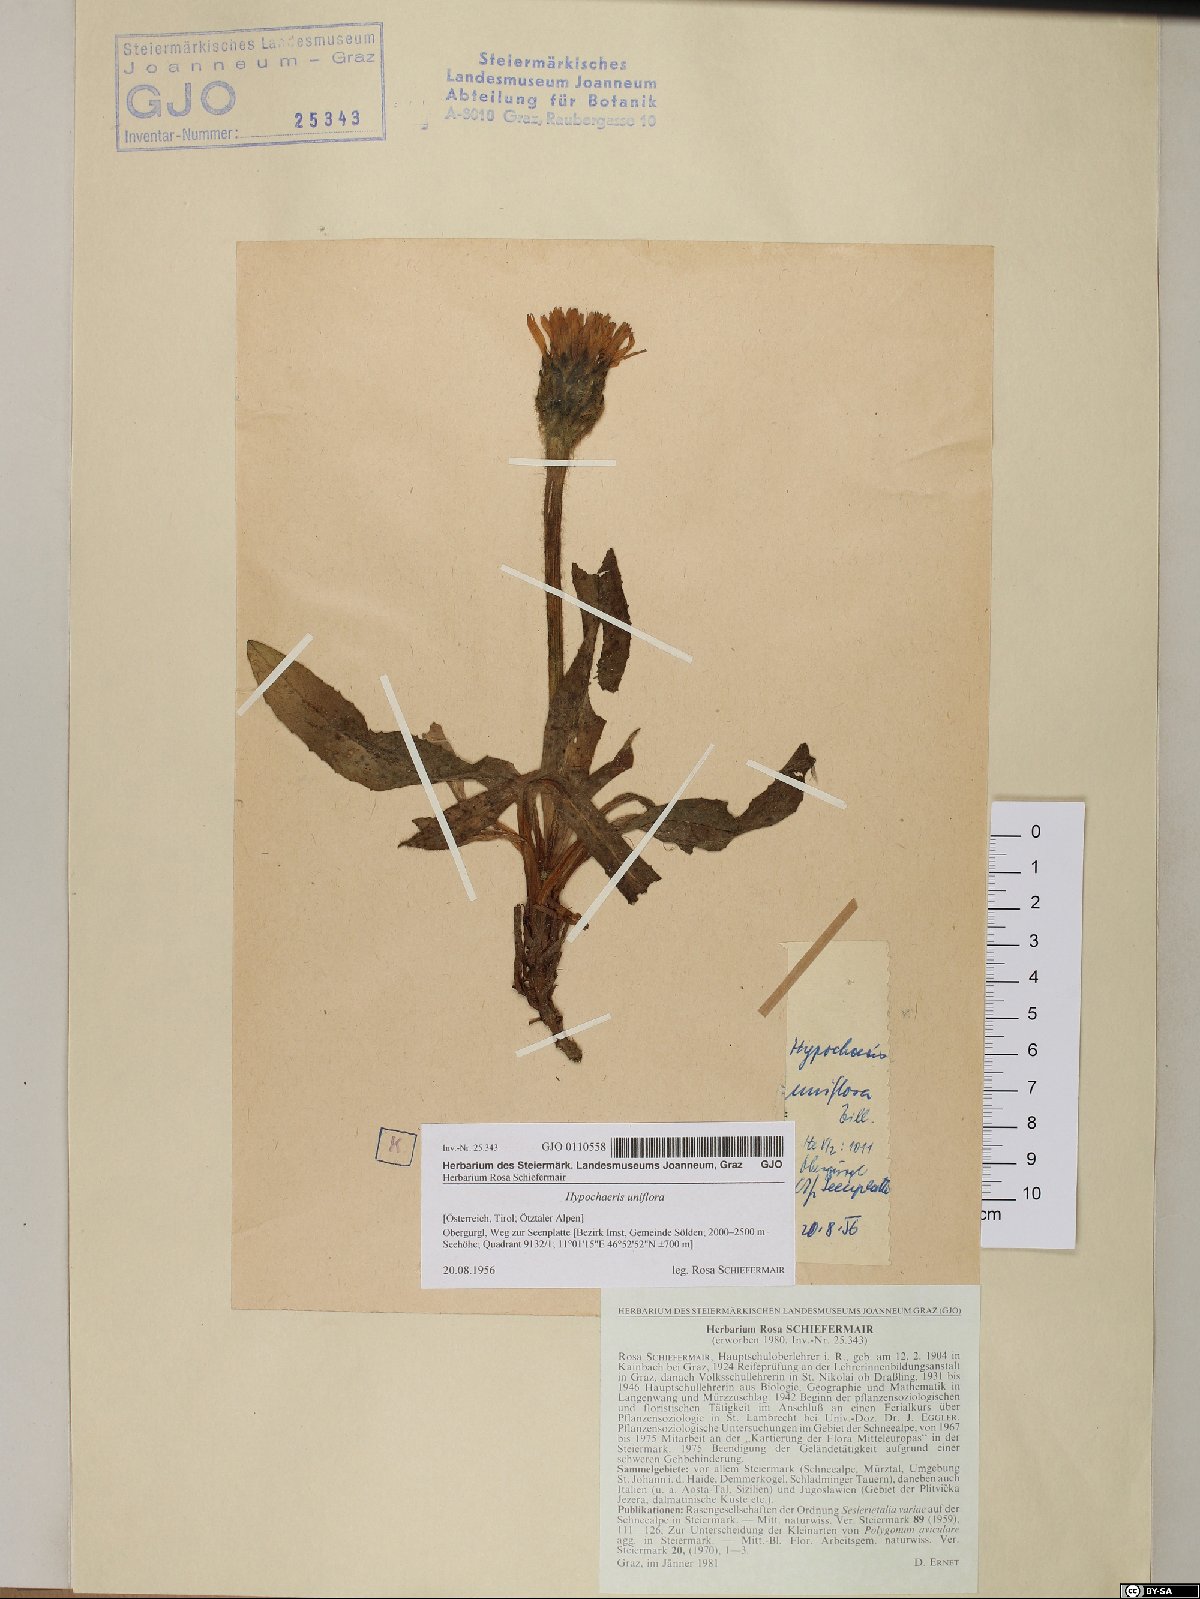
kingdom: Plantae
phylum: Tracheophyta
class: Magnoliopsida
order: Asterales
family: Asteraceae
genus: Trommsdorffia
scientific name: Trommsdorffia uniflora
